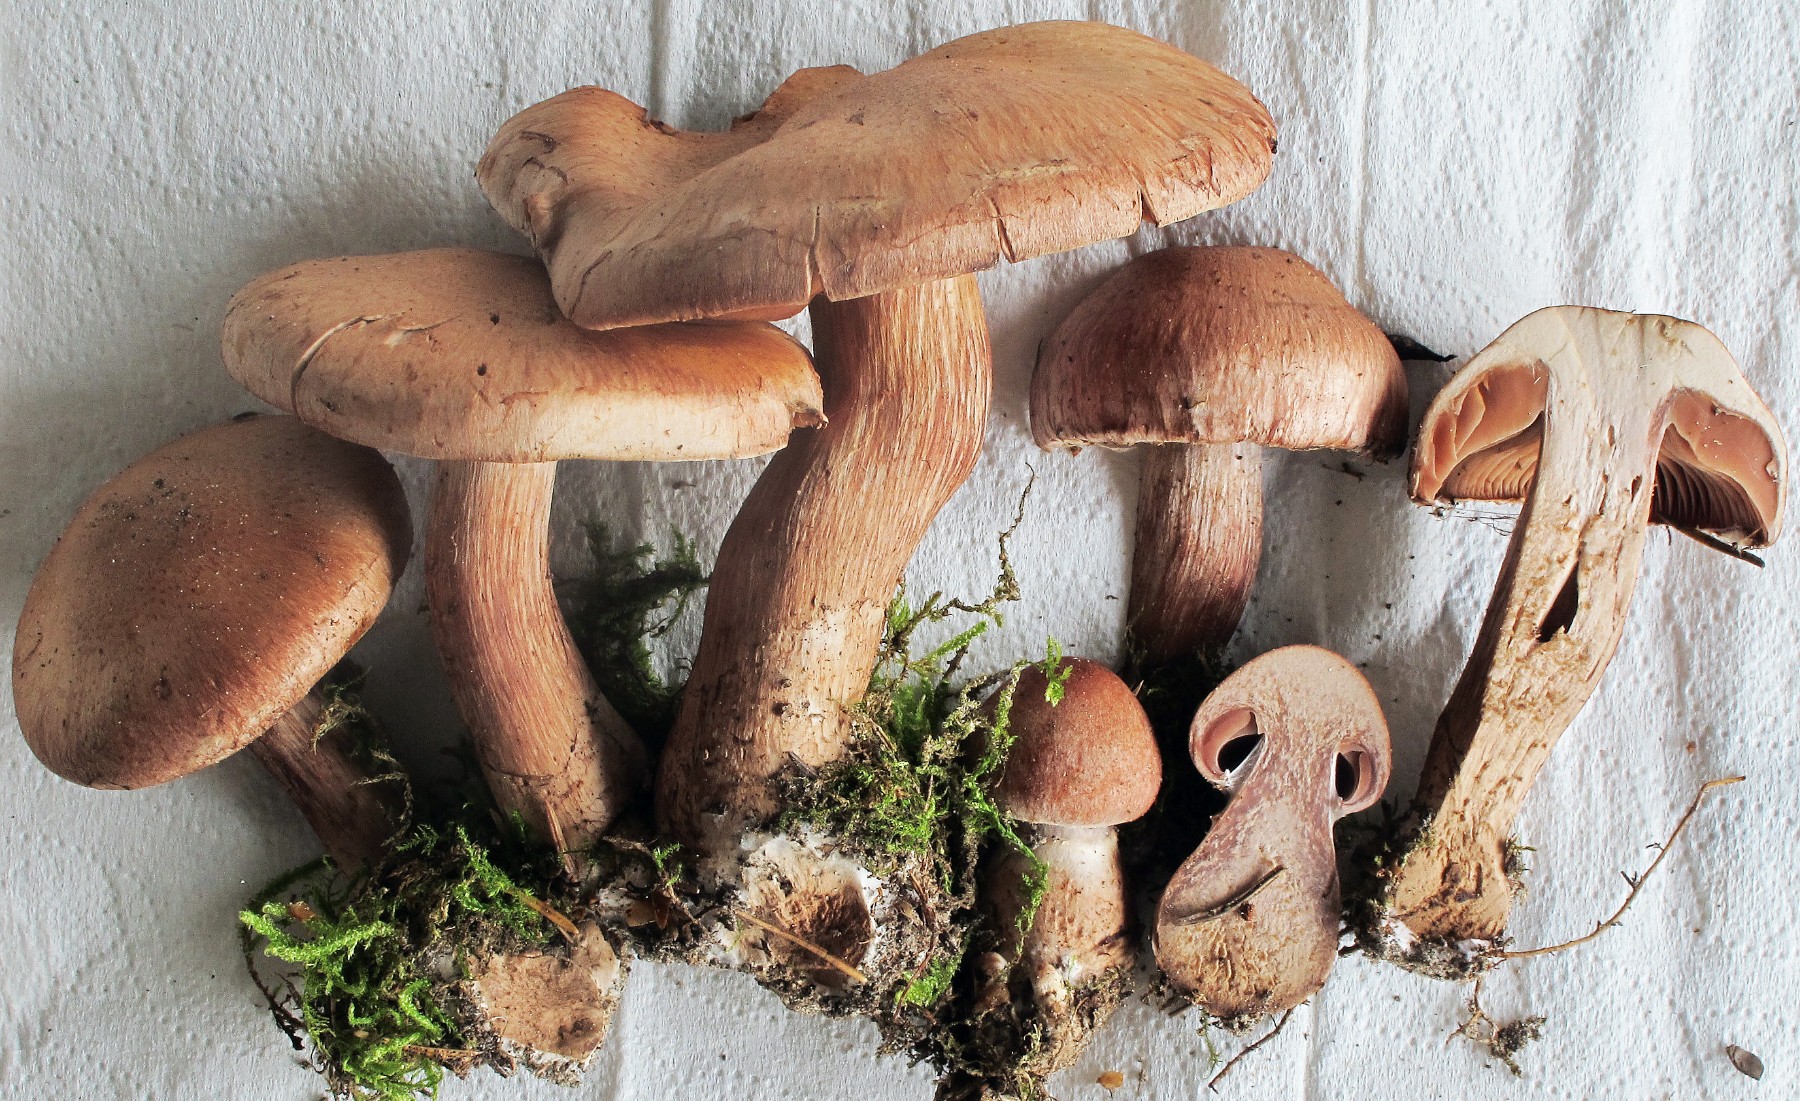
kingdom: Fungi
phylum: Basidiomycota
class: Agaricomycetes
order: Agaricales
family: Cortinariaceae
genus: Cortinarius
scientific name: Cortinarius adustorimosus
